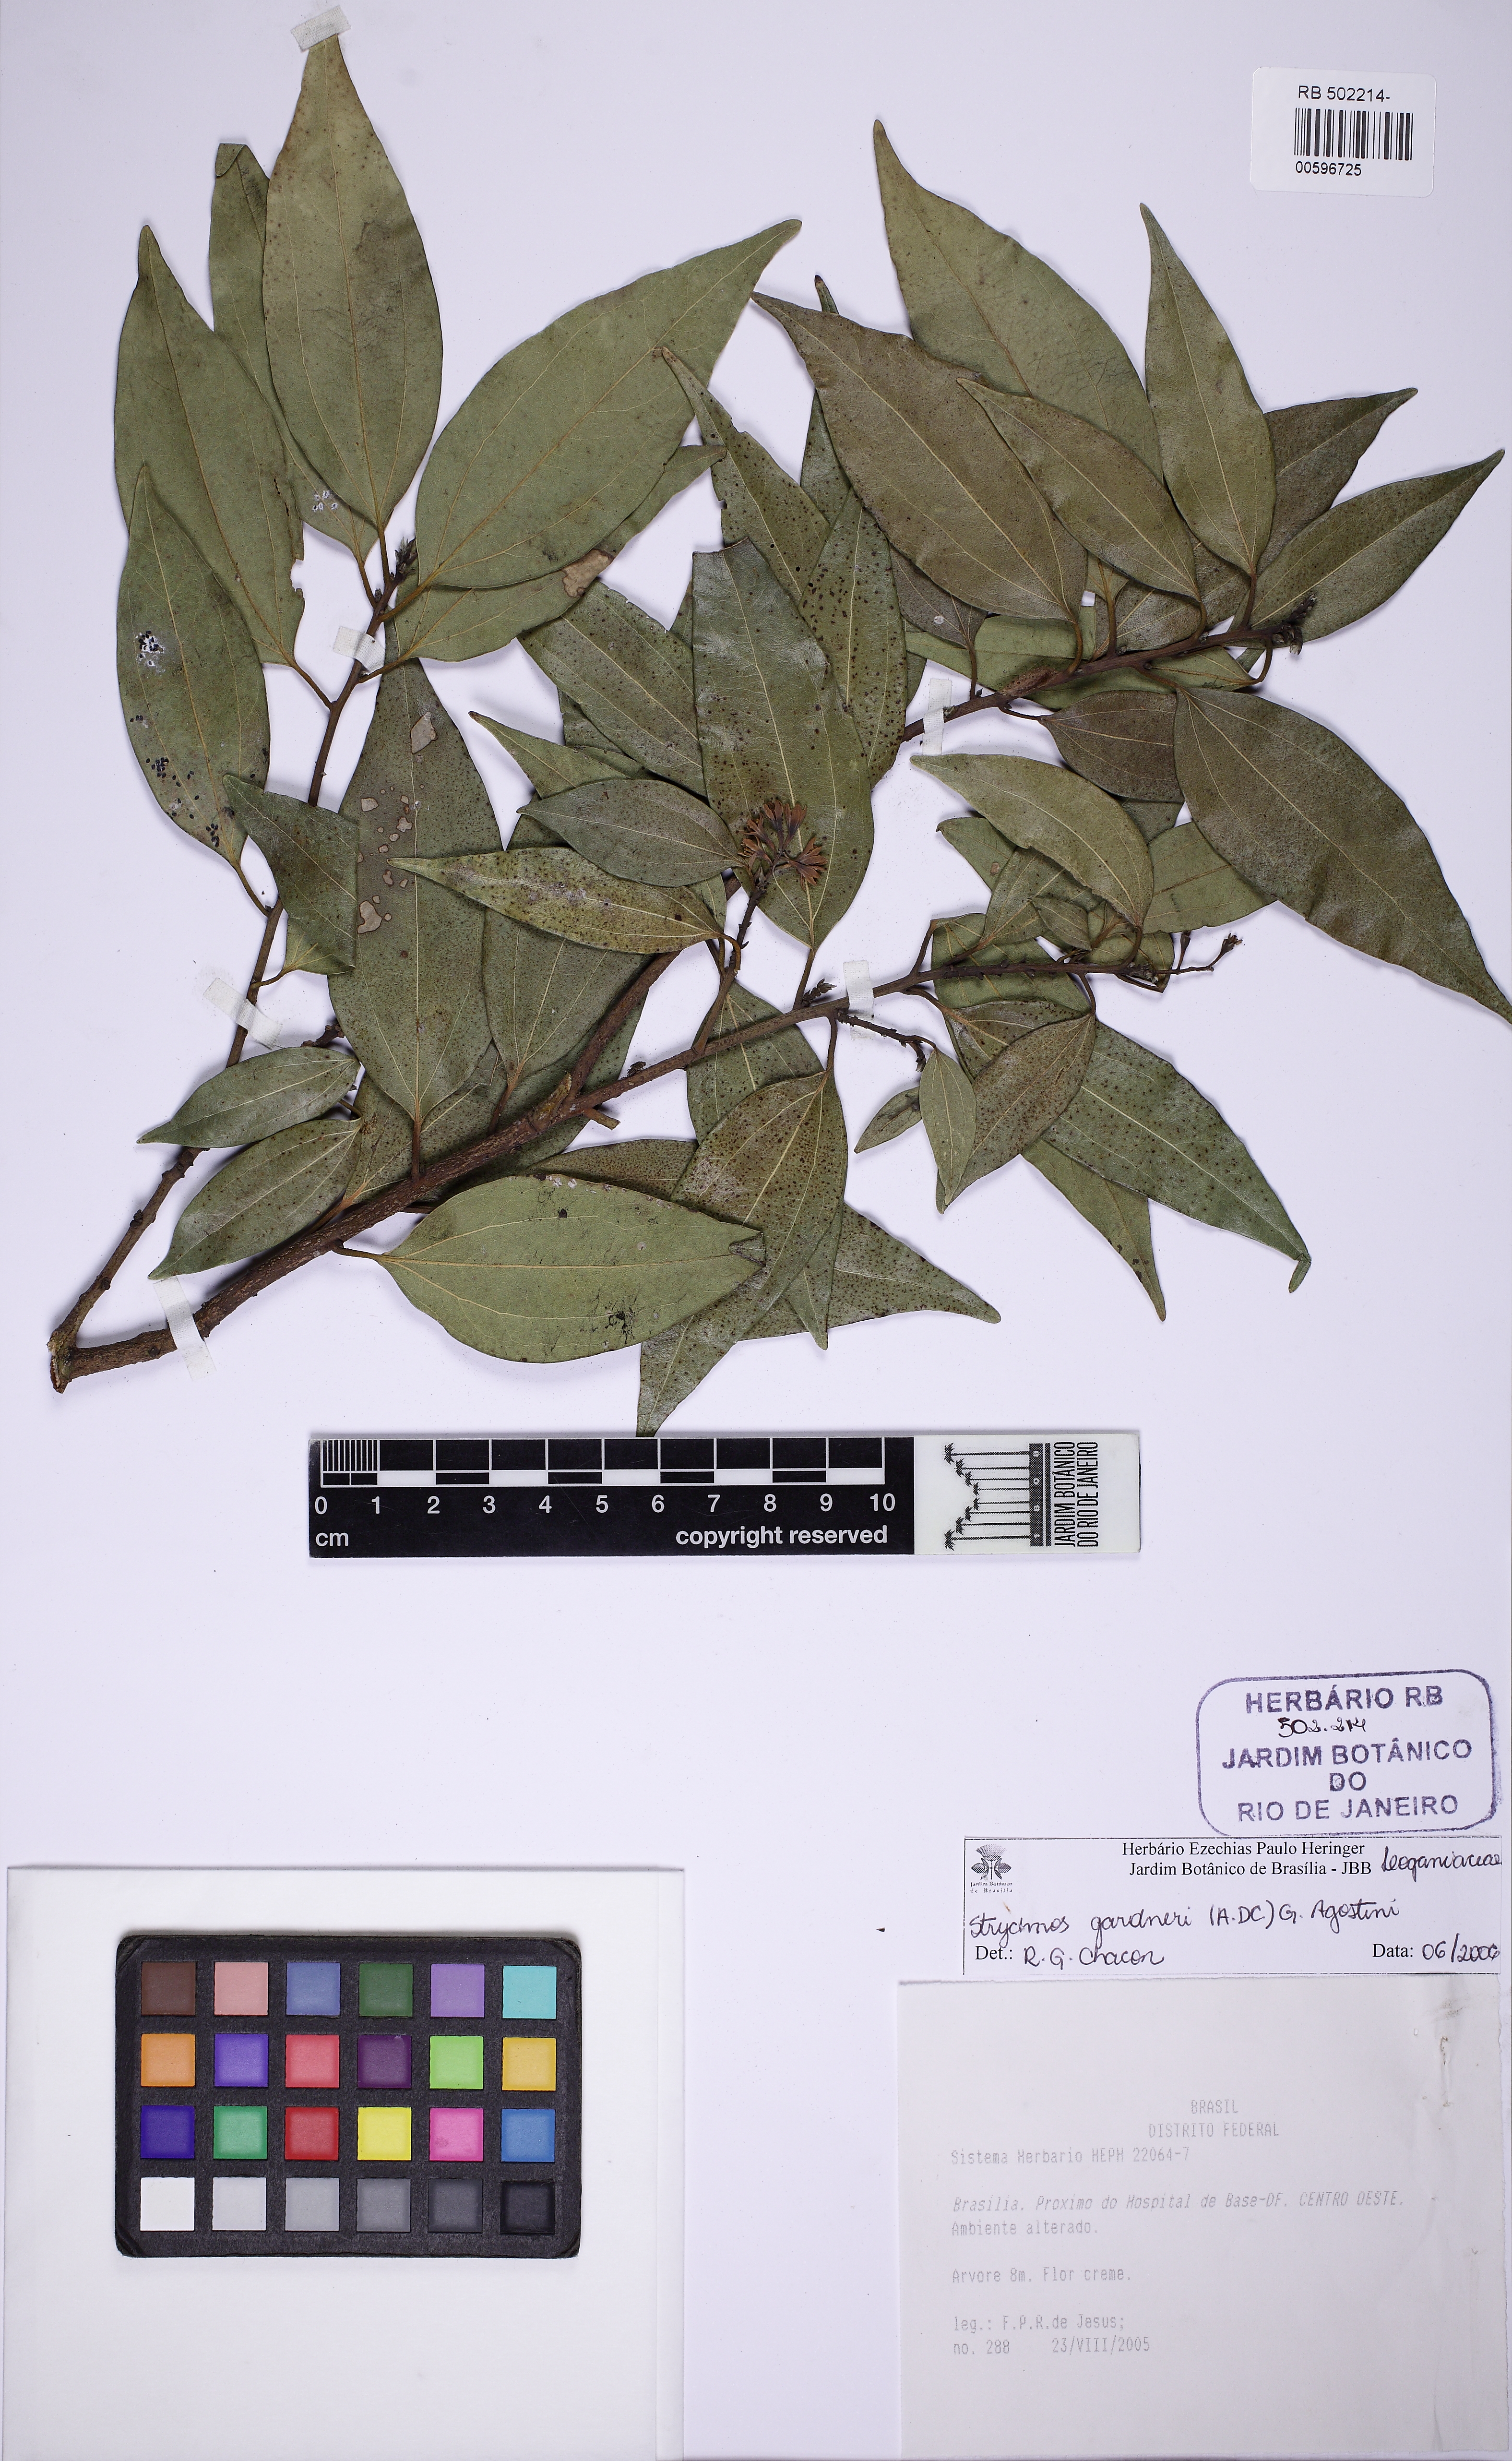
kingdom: Plantae
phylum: Tracheophyta
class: Magnoliopsida
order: Gentianales
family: Loganiaceae
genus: Strychnos
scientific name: Strychnos gardneri
